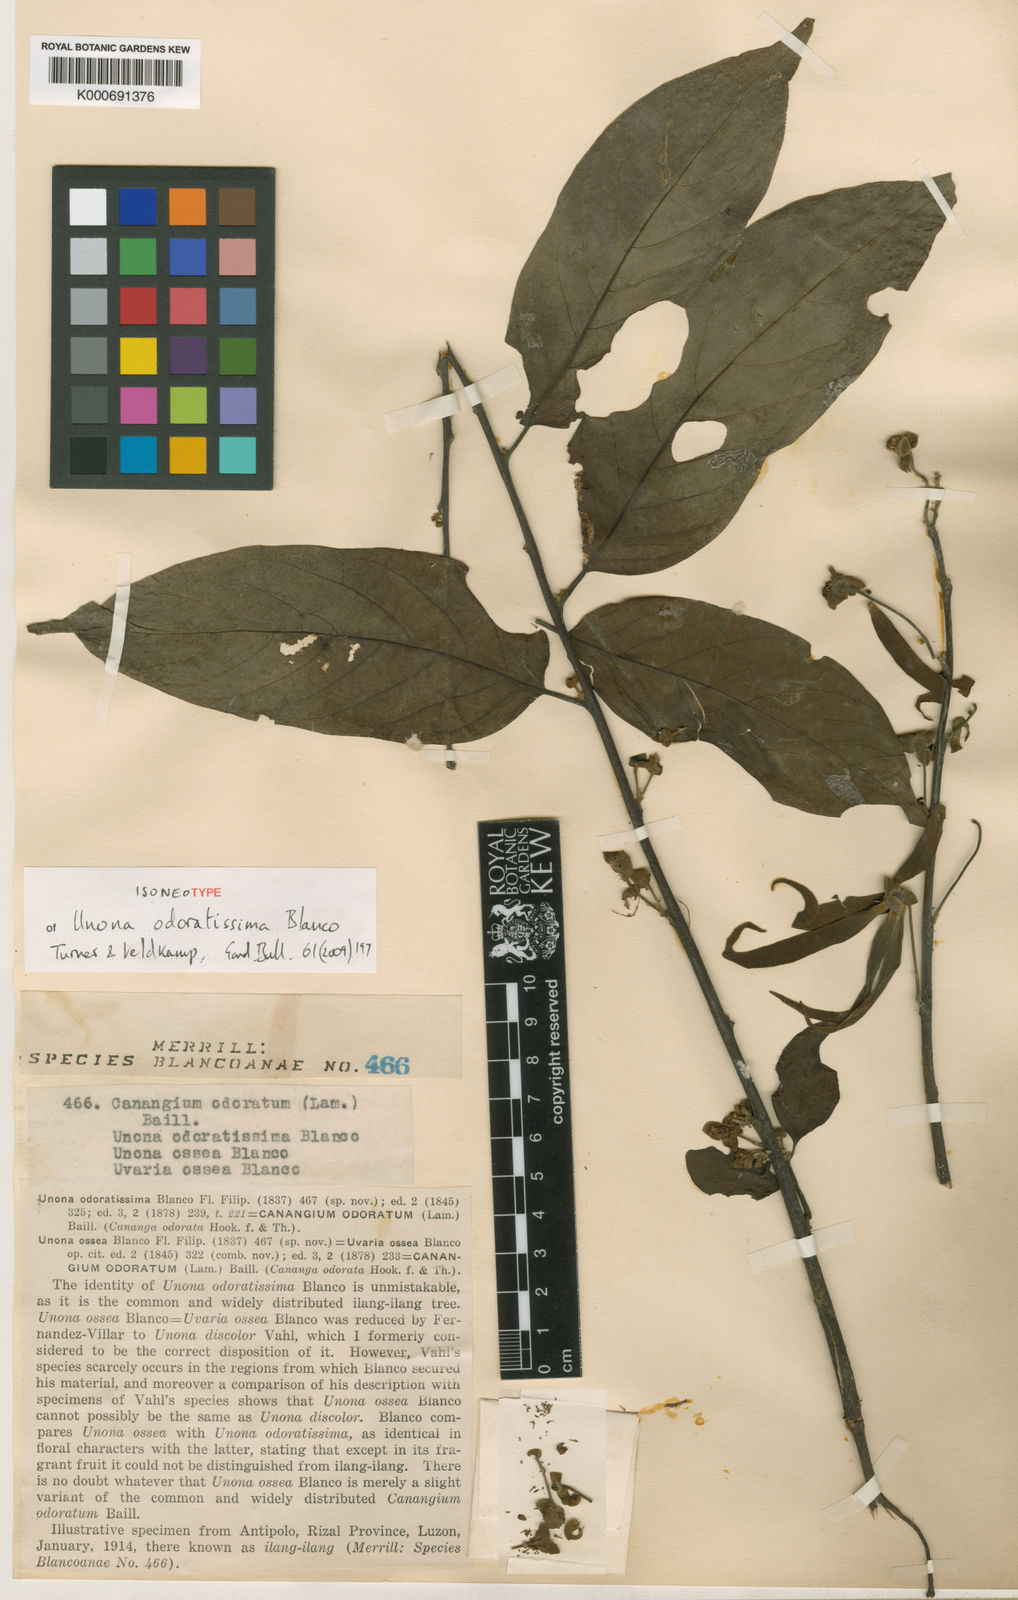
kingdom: Plantae
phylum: Tracheophyta
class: Magnoliopsida
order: Magnoliales
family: Annonaceae
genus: Cananga
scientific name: Cananga odorata
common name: Cananga tree
